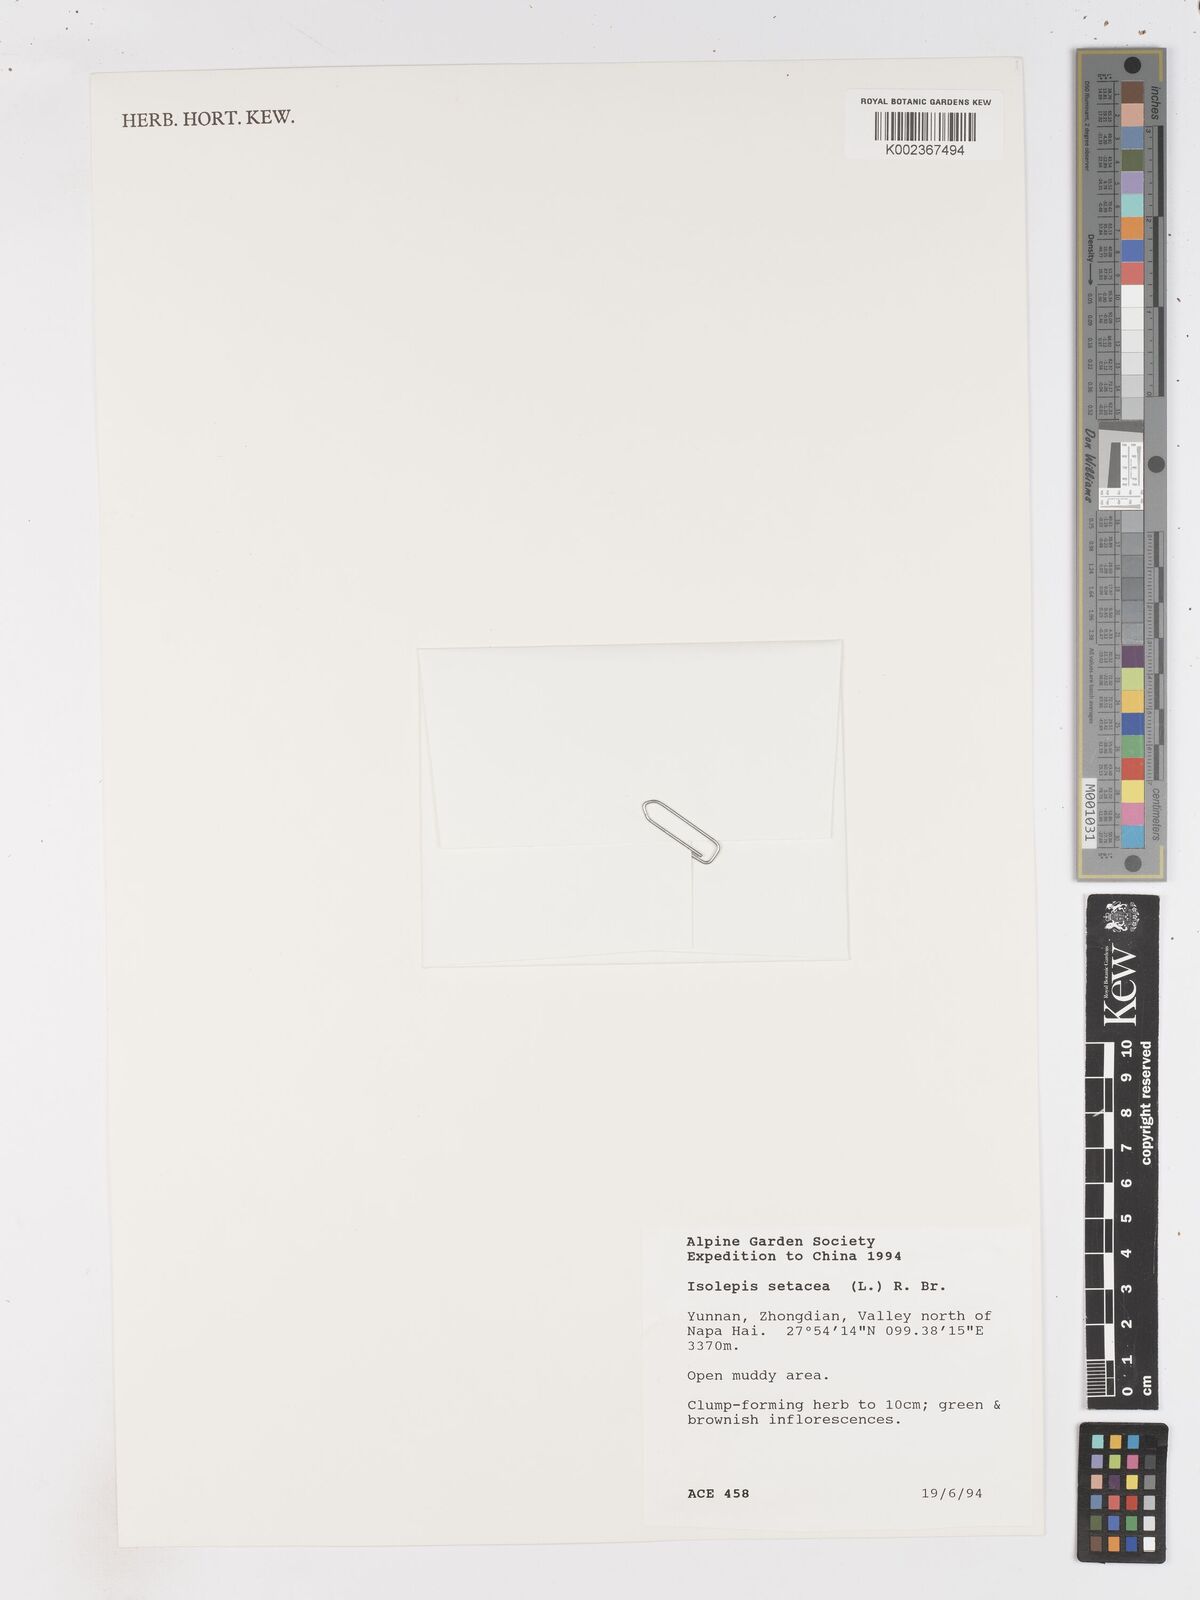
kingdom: Plantae
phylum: Tracheophyta
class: Liliopsida
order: Poales
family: Cyperaceae
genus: Isolepis
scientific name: Isolepis setacea
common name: Bristle club-rush
